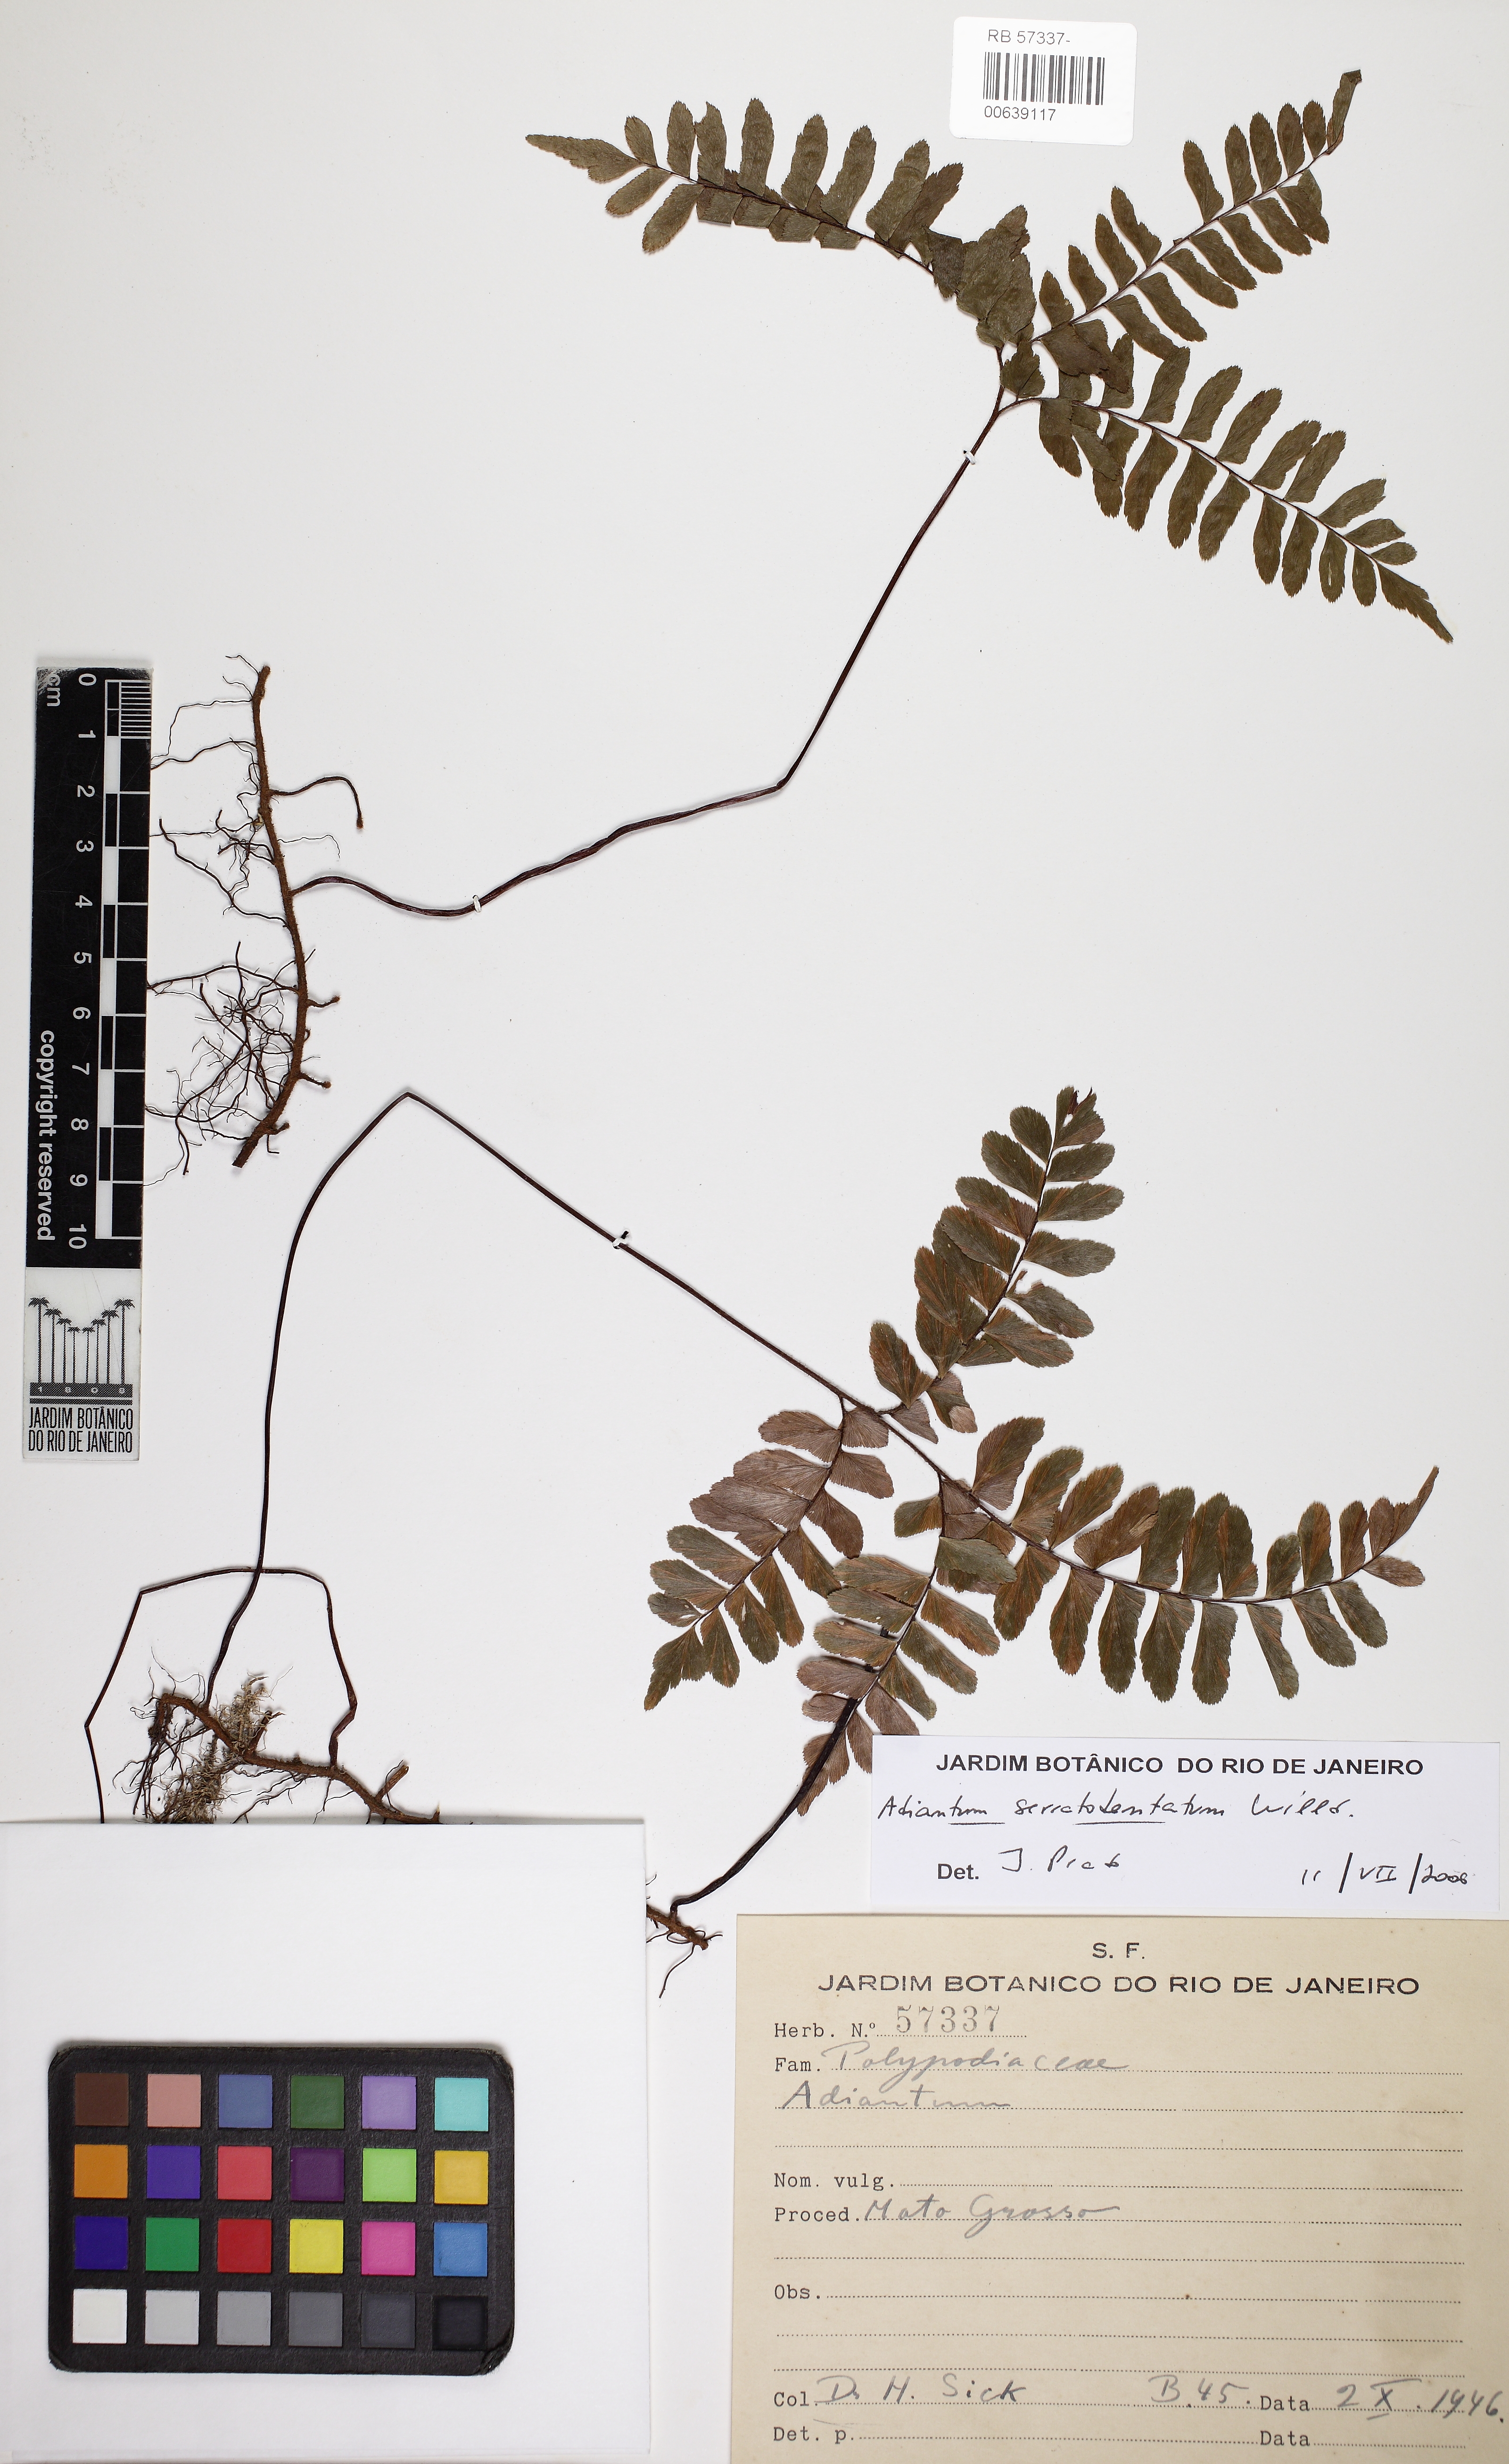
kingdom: Plantae
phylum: Tracheophyta
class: Polypodiopsida
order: Polypodiales
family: Pteridaceae
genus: Adiantum
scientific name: Adiantum serratodentatum
